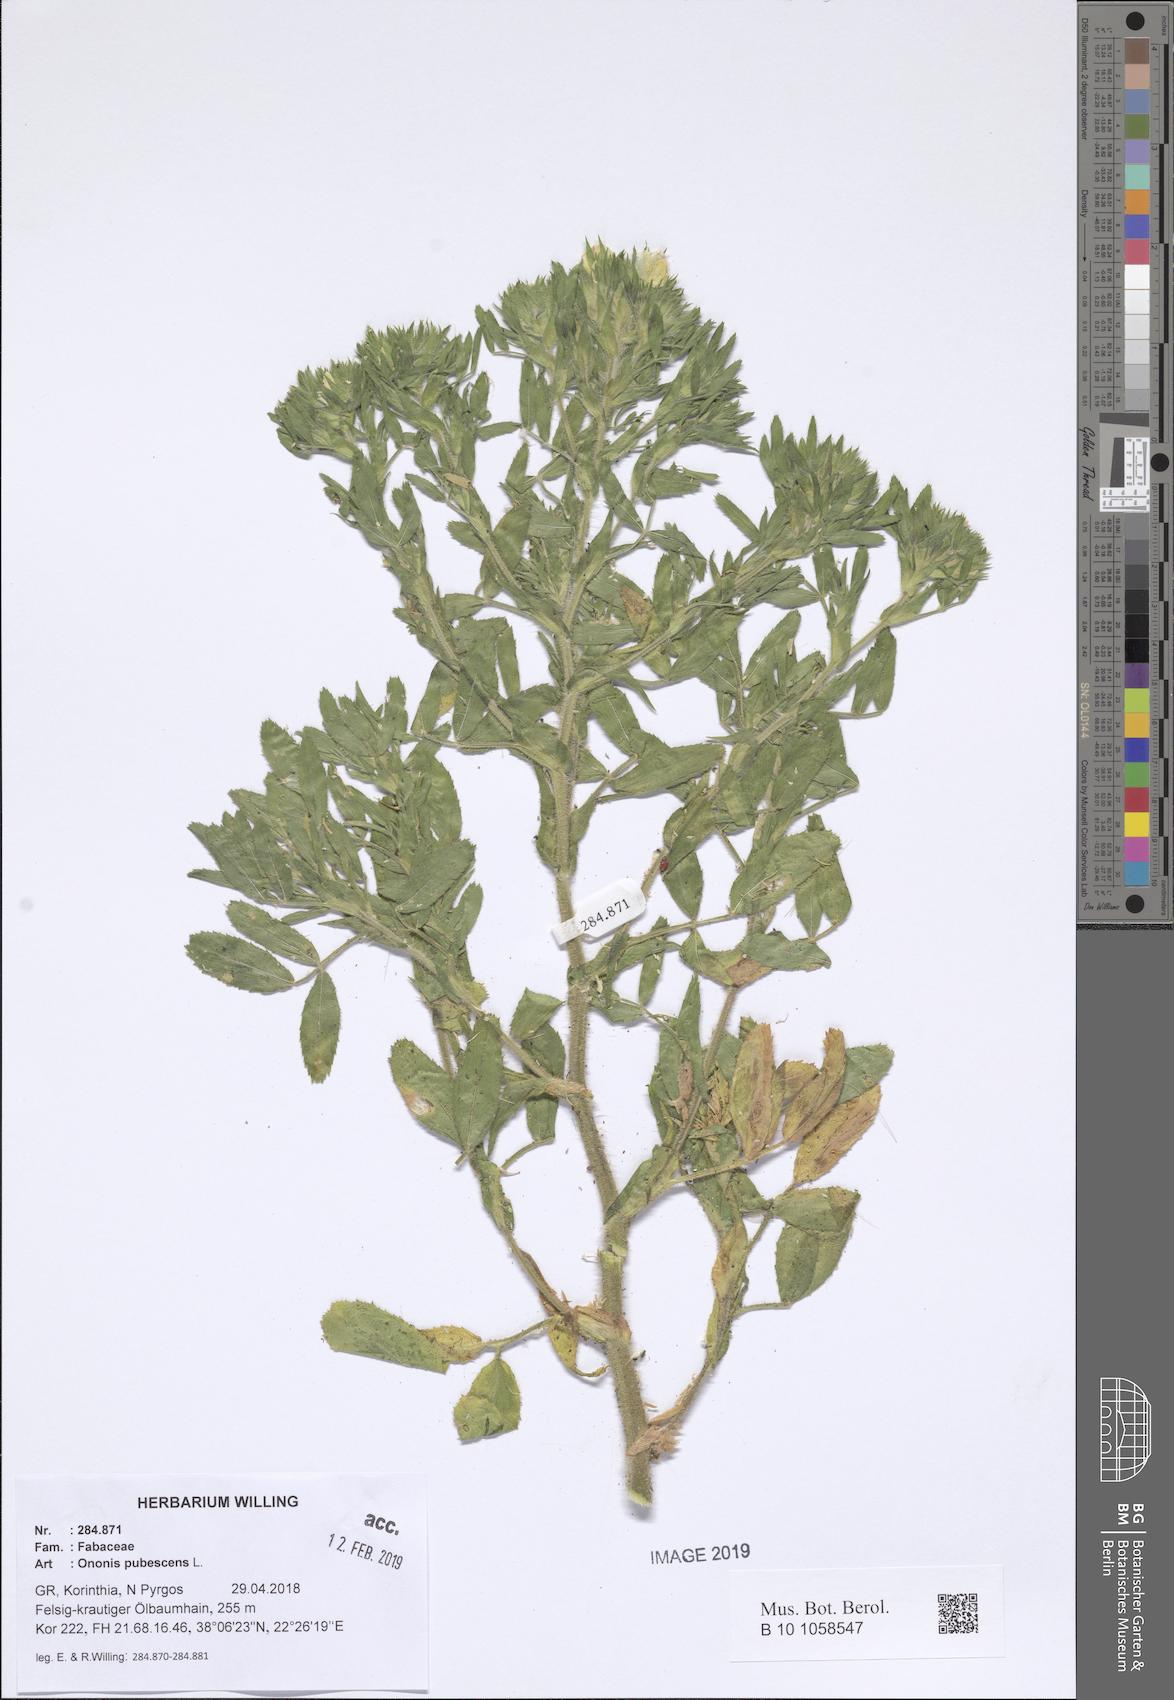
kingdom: Plantae
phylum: Tracheophyta
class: Magnoliopsida
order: Fabales
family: Fabaceae
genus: Ononis
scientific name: Ononis pubescens
